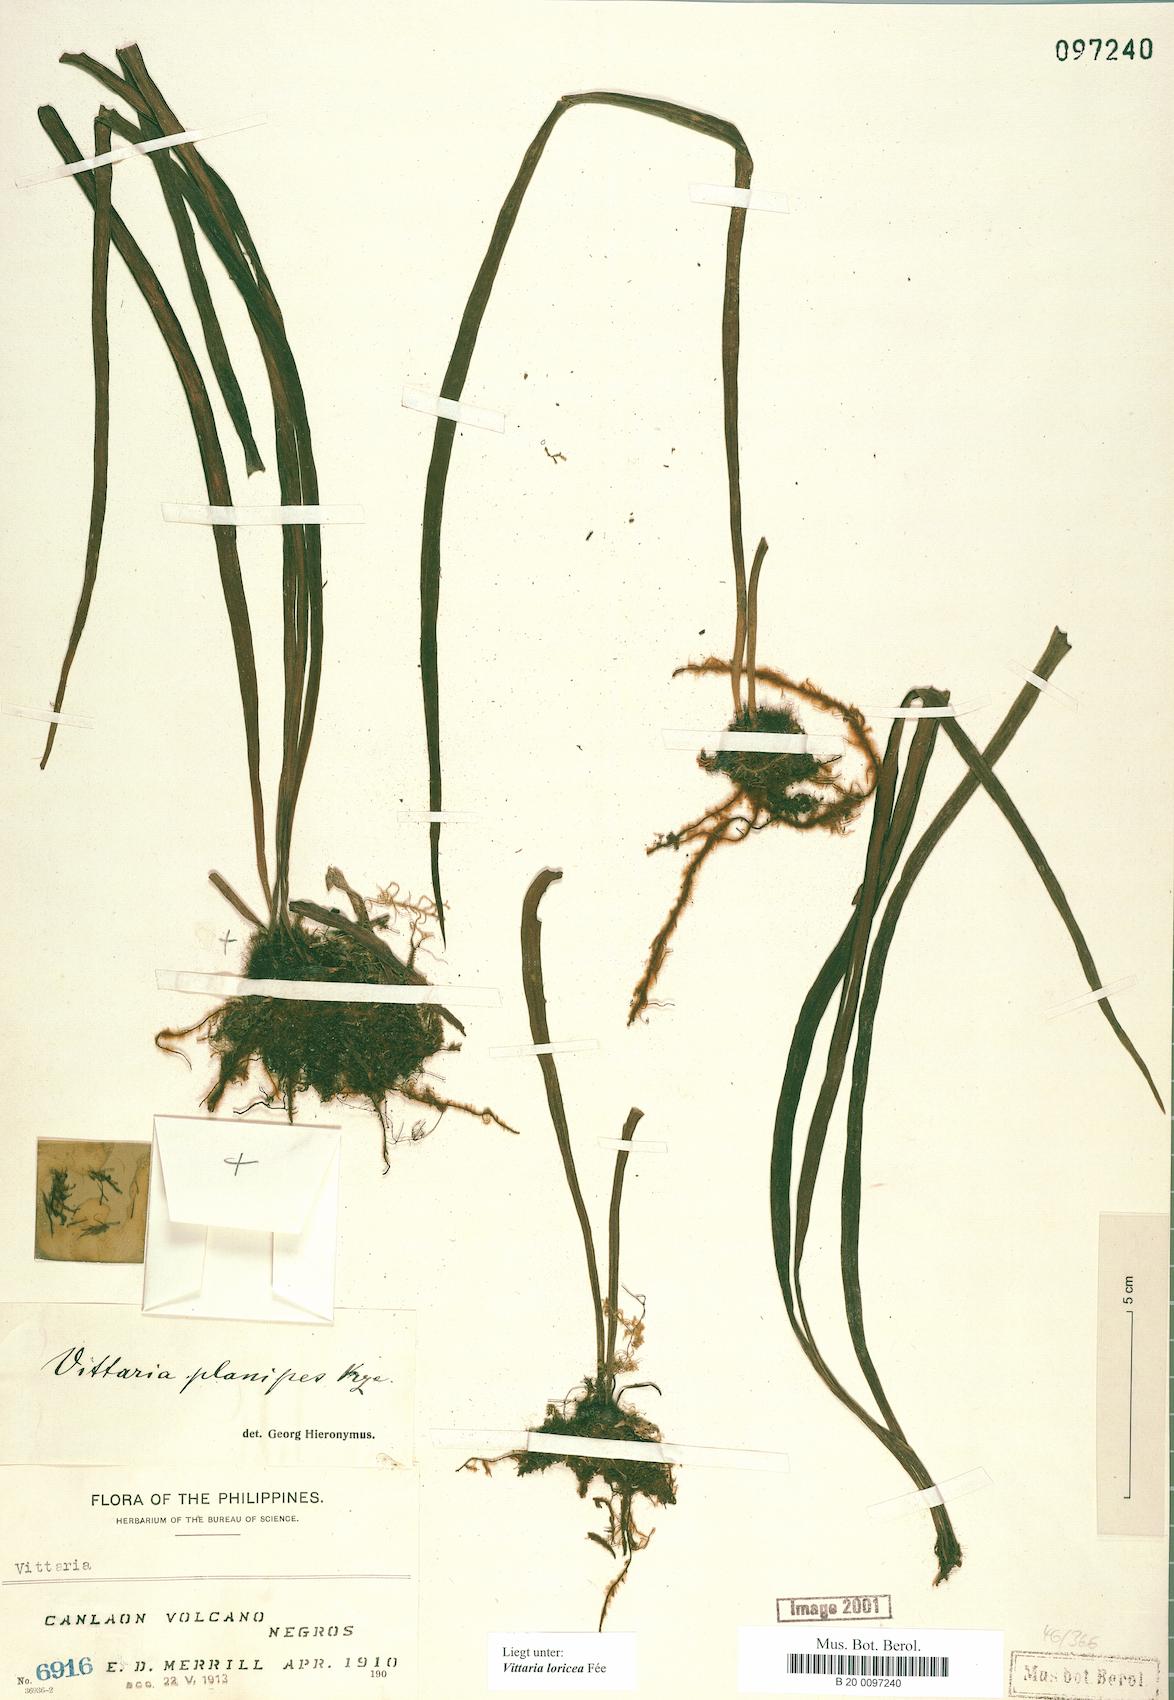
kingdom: Plantae
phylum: Tracheophyta
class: Polypodiopsida
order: Polypodiales
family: Pteridaceae
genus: Haplopteris
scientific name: Haplopteris zosterifolia
